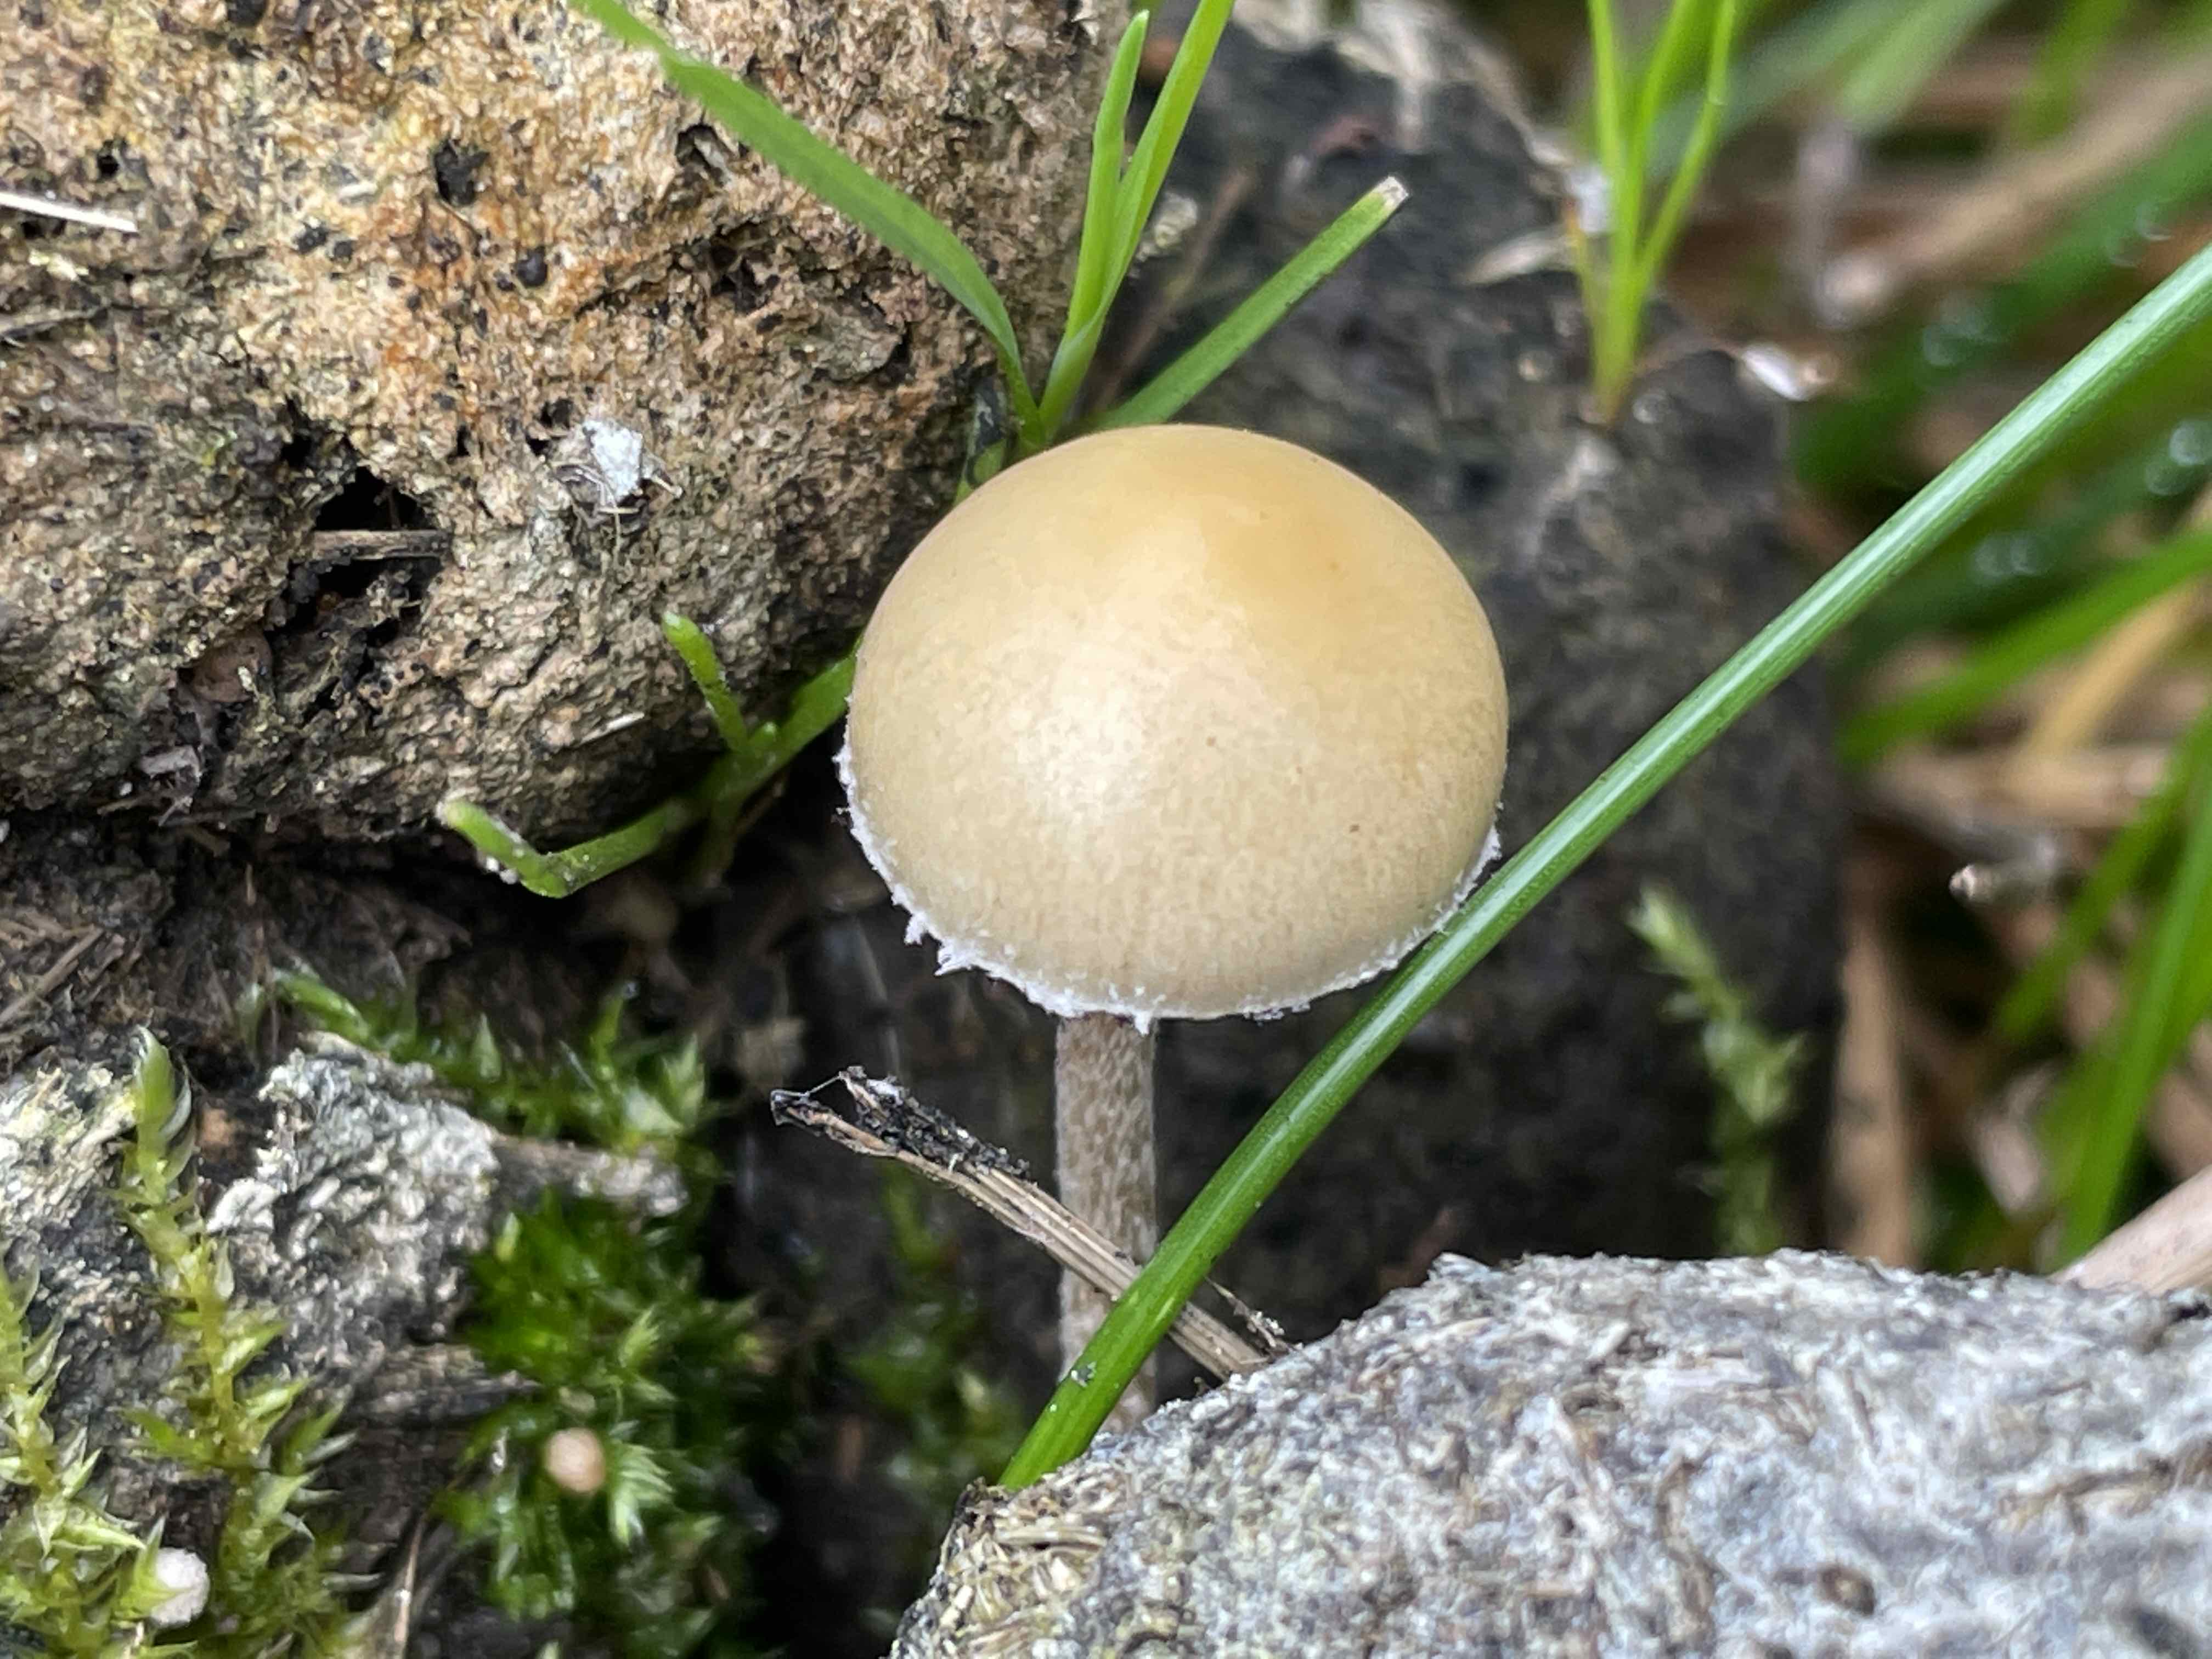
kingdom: Fungi
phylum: Basidiomycota
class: Agaricomycetes
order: Agaricales
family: Strophariaceae
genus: Protostropharia
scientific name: Protostropharia semiglobata
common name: halvkugleformet bredblad
